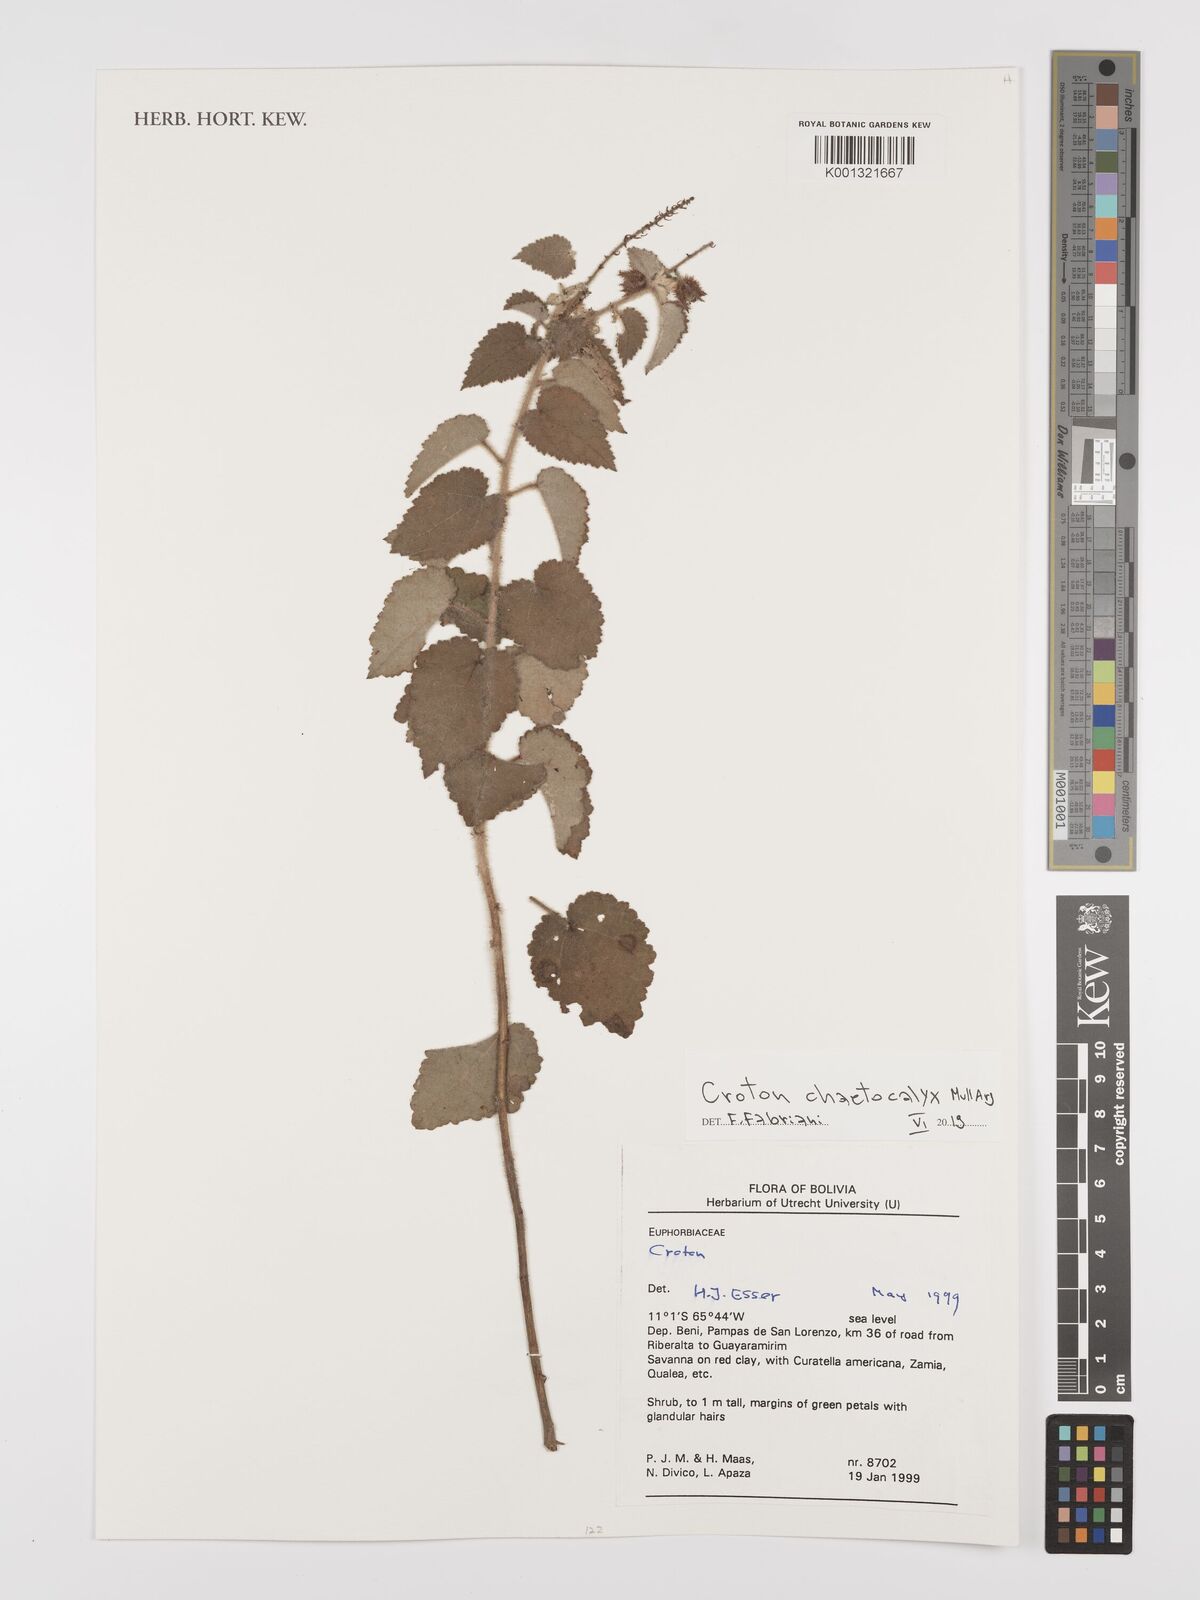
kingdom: Plantae
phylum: Tracheophyta
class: Magnoliopsida
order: Malpighiales
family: Euphorbiaceae
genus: Croton
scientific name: Croton catariae
